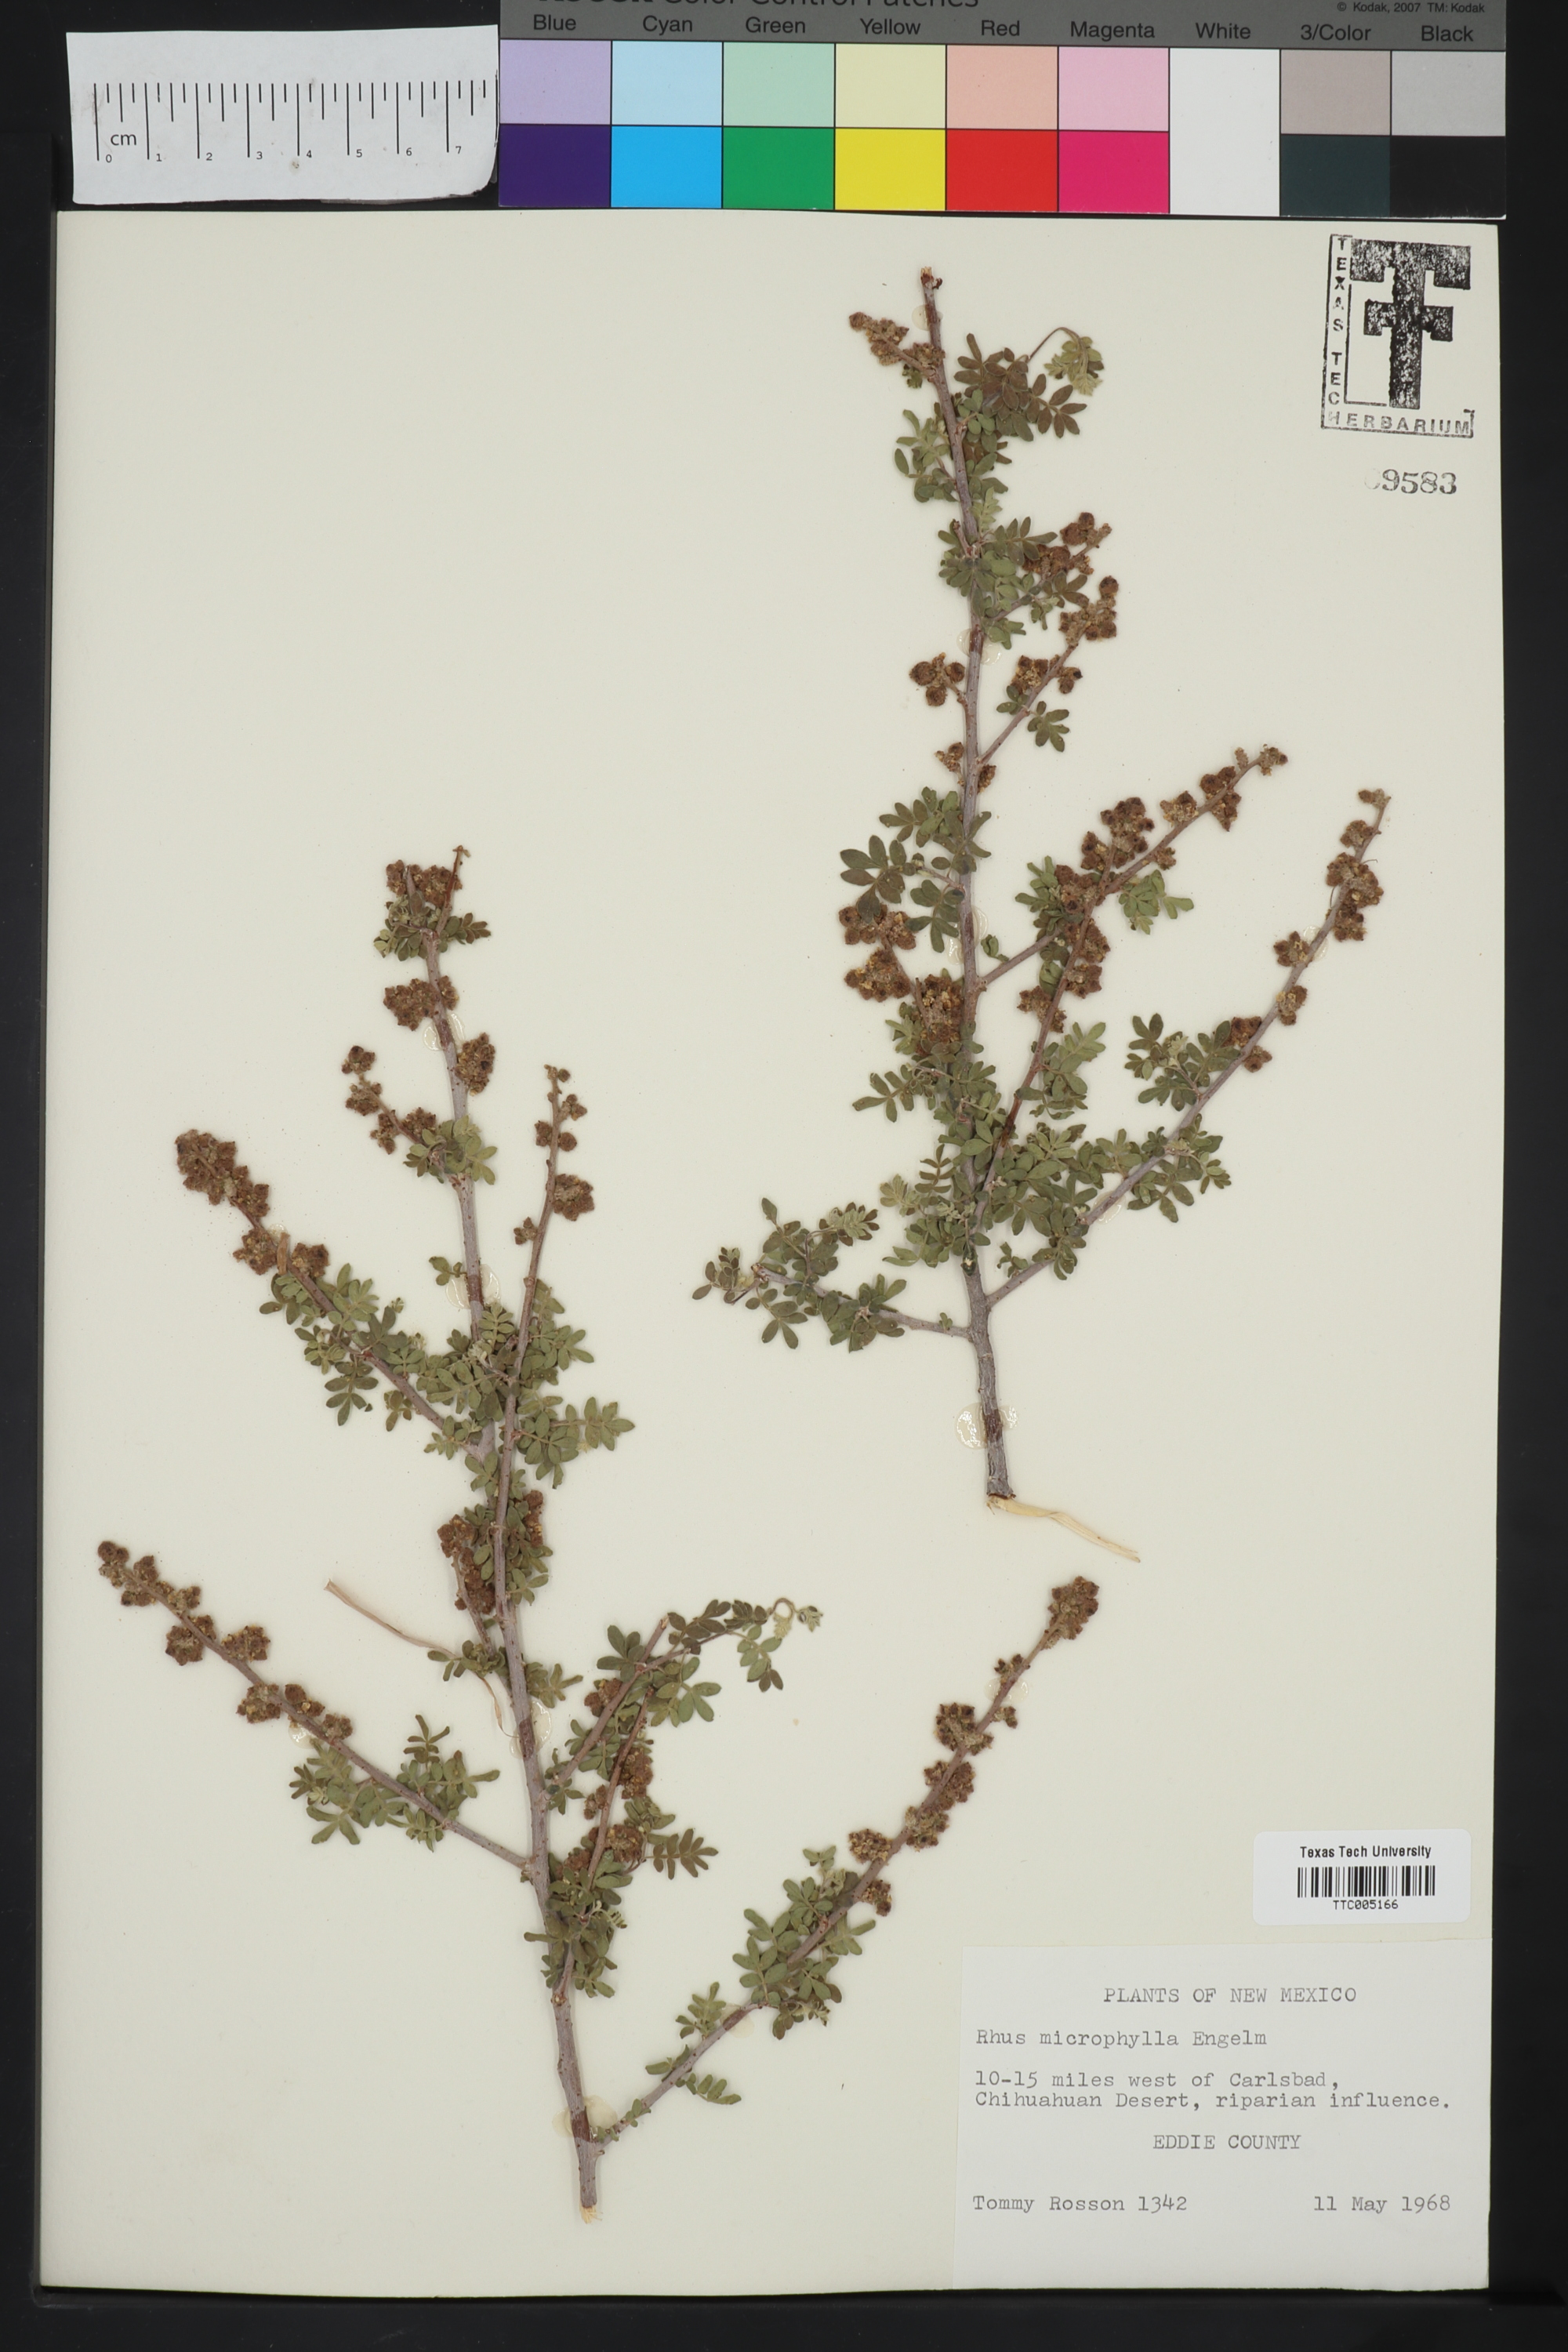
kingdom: Plantae
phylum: Tracheophyta
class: Magnoliopsida
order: Sapindales
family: Anacardiaceae
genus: Rhus
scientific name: Rhus microphylla
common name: Desert sumac
